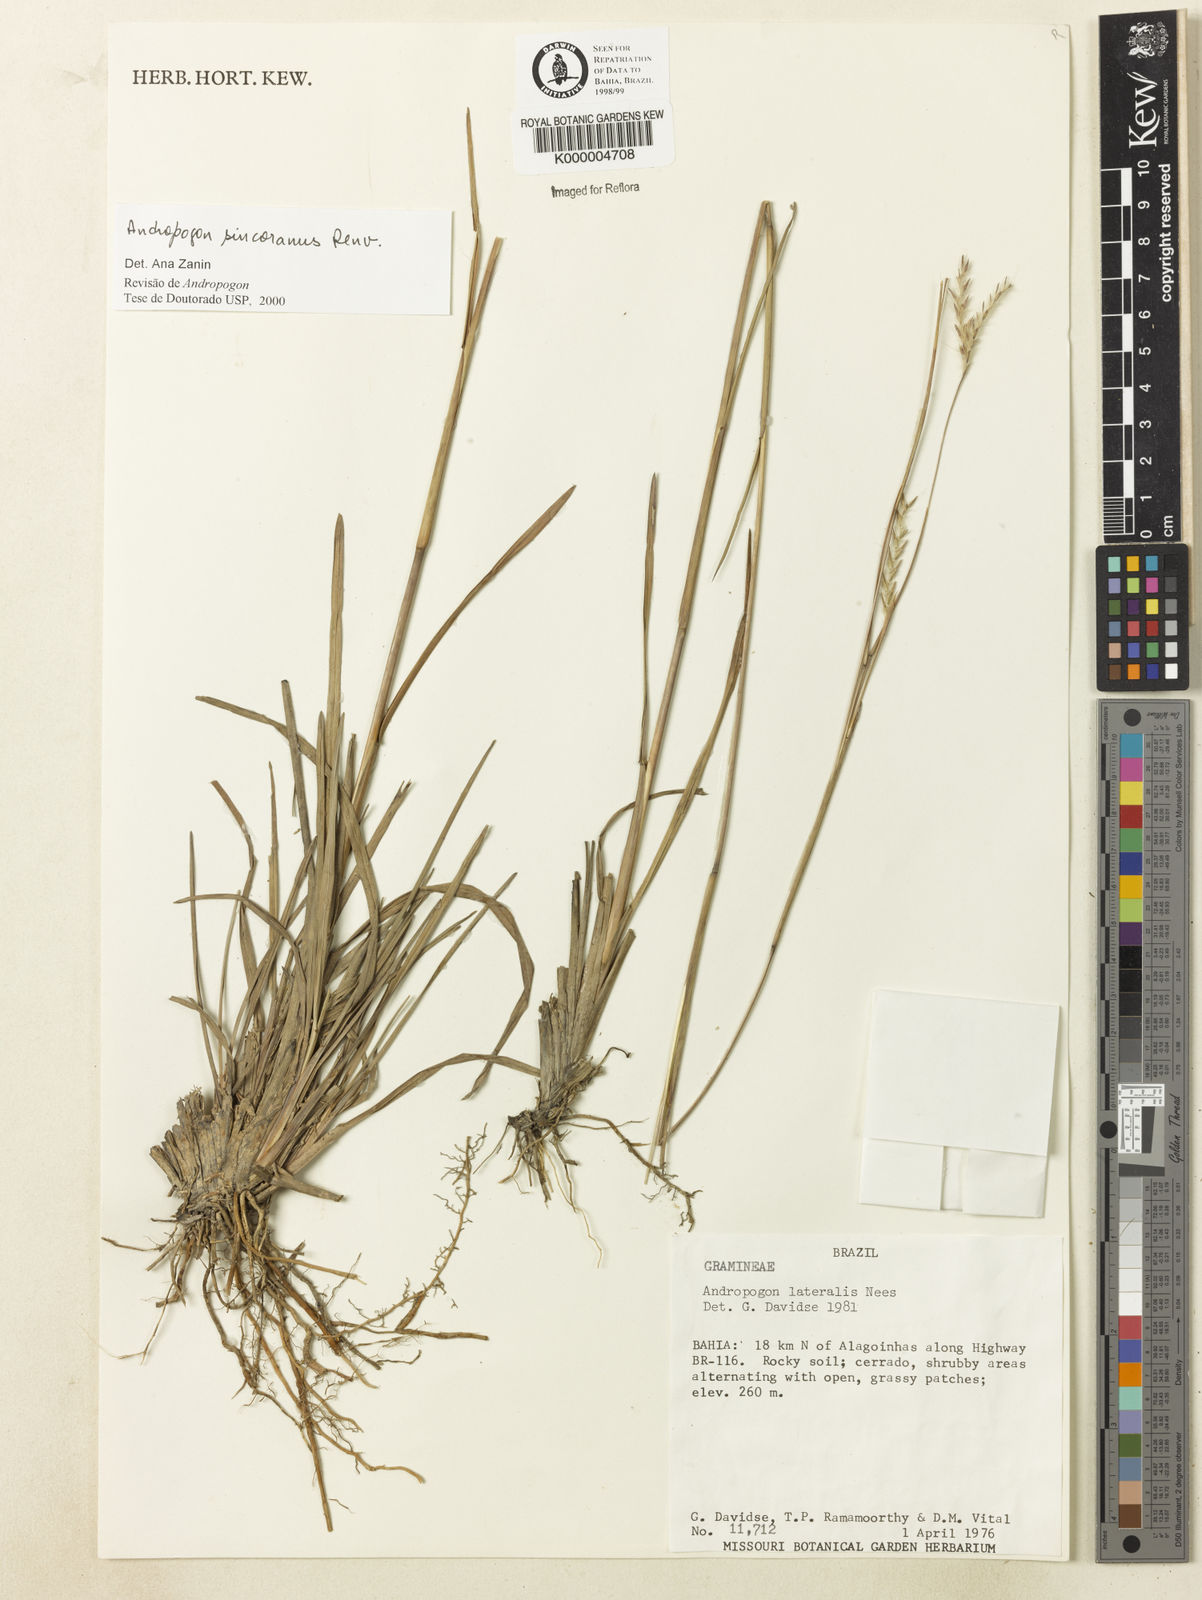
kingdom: Plantae
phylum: Tracheophyta
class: Liliopsida
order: Poales
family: Poaceae
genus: Andropogon
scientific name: Andropogon ingratus
